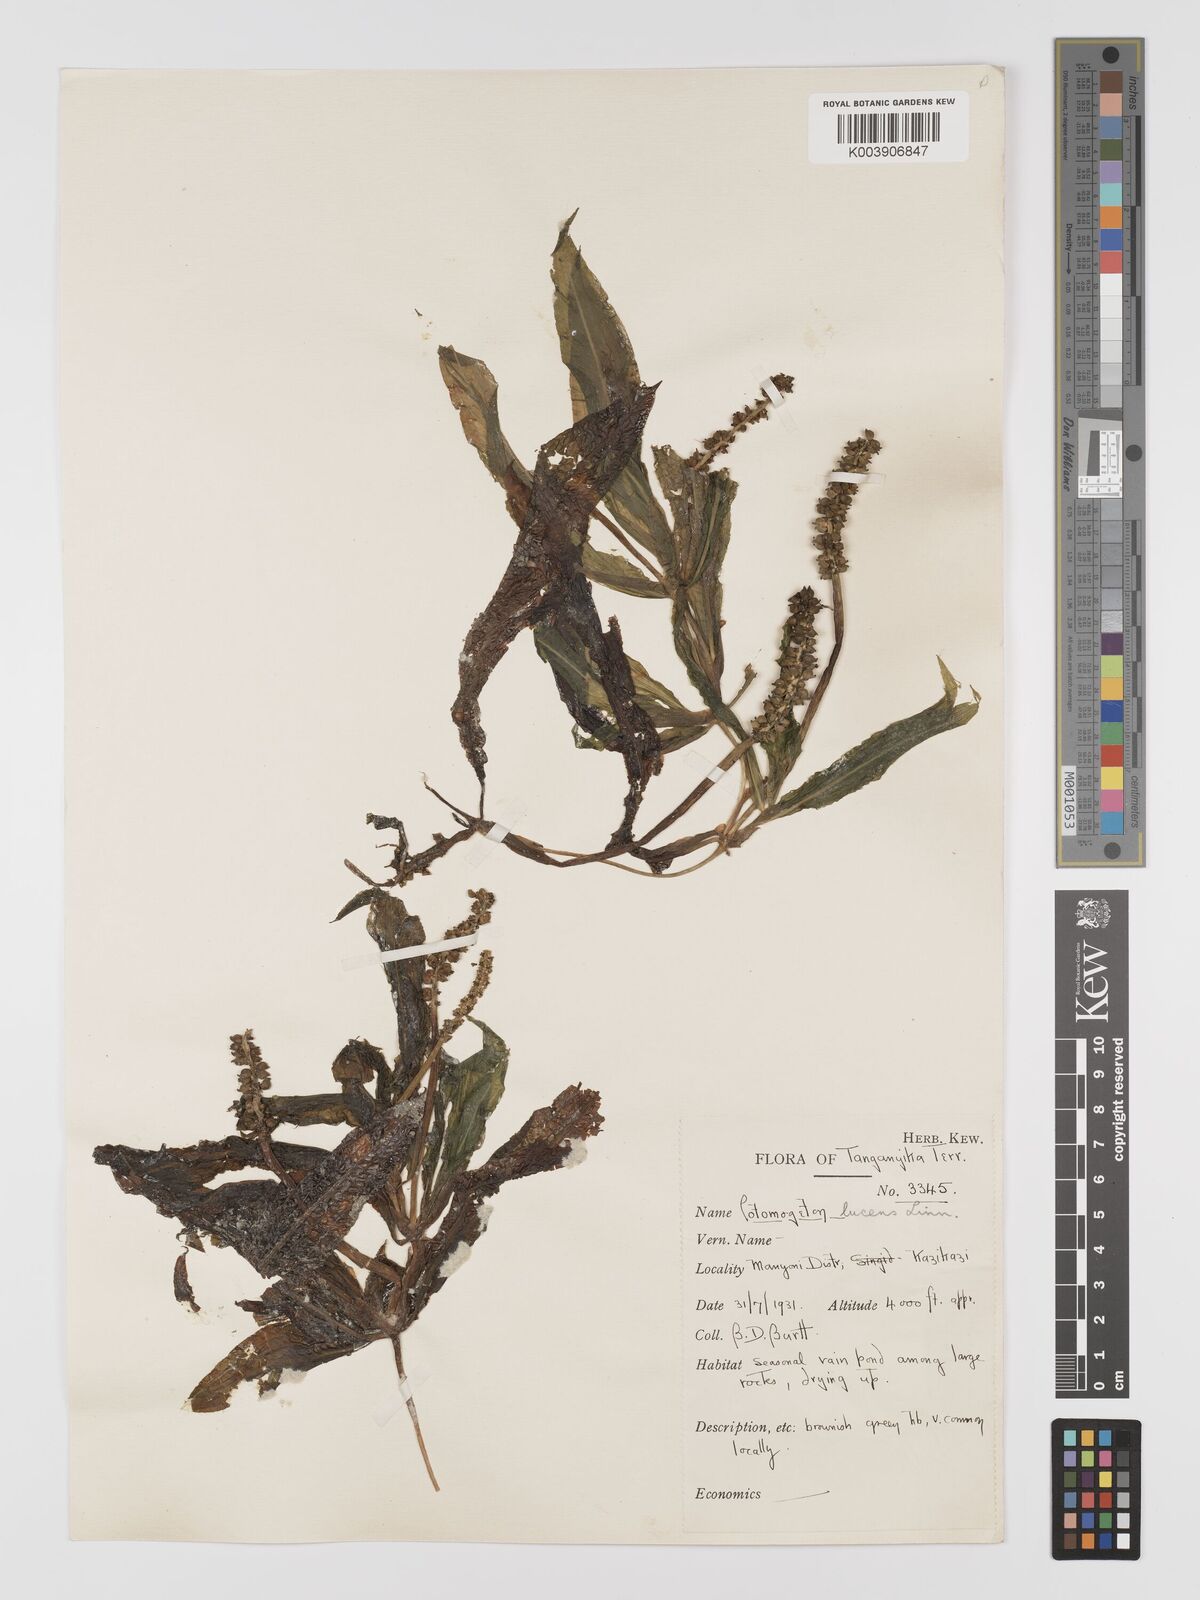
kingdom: Plantae
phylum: Tracheophyta
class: Liliopsida
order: Alismatales
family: Potamogetonaceae
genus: Potamogeton
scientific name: Potamogeton schweinfurthii
